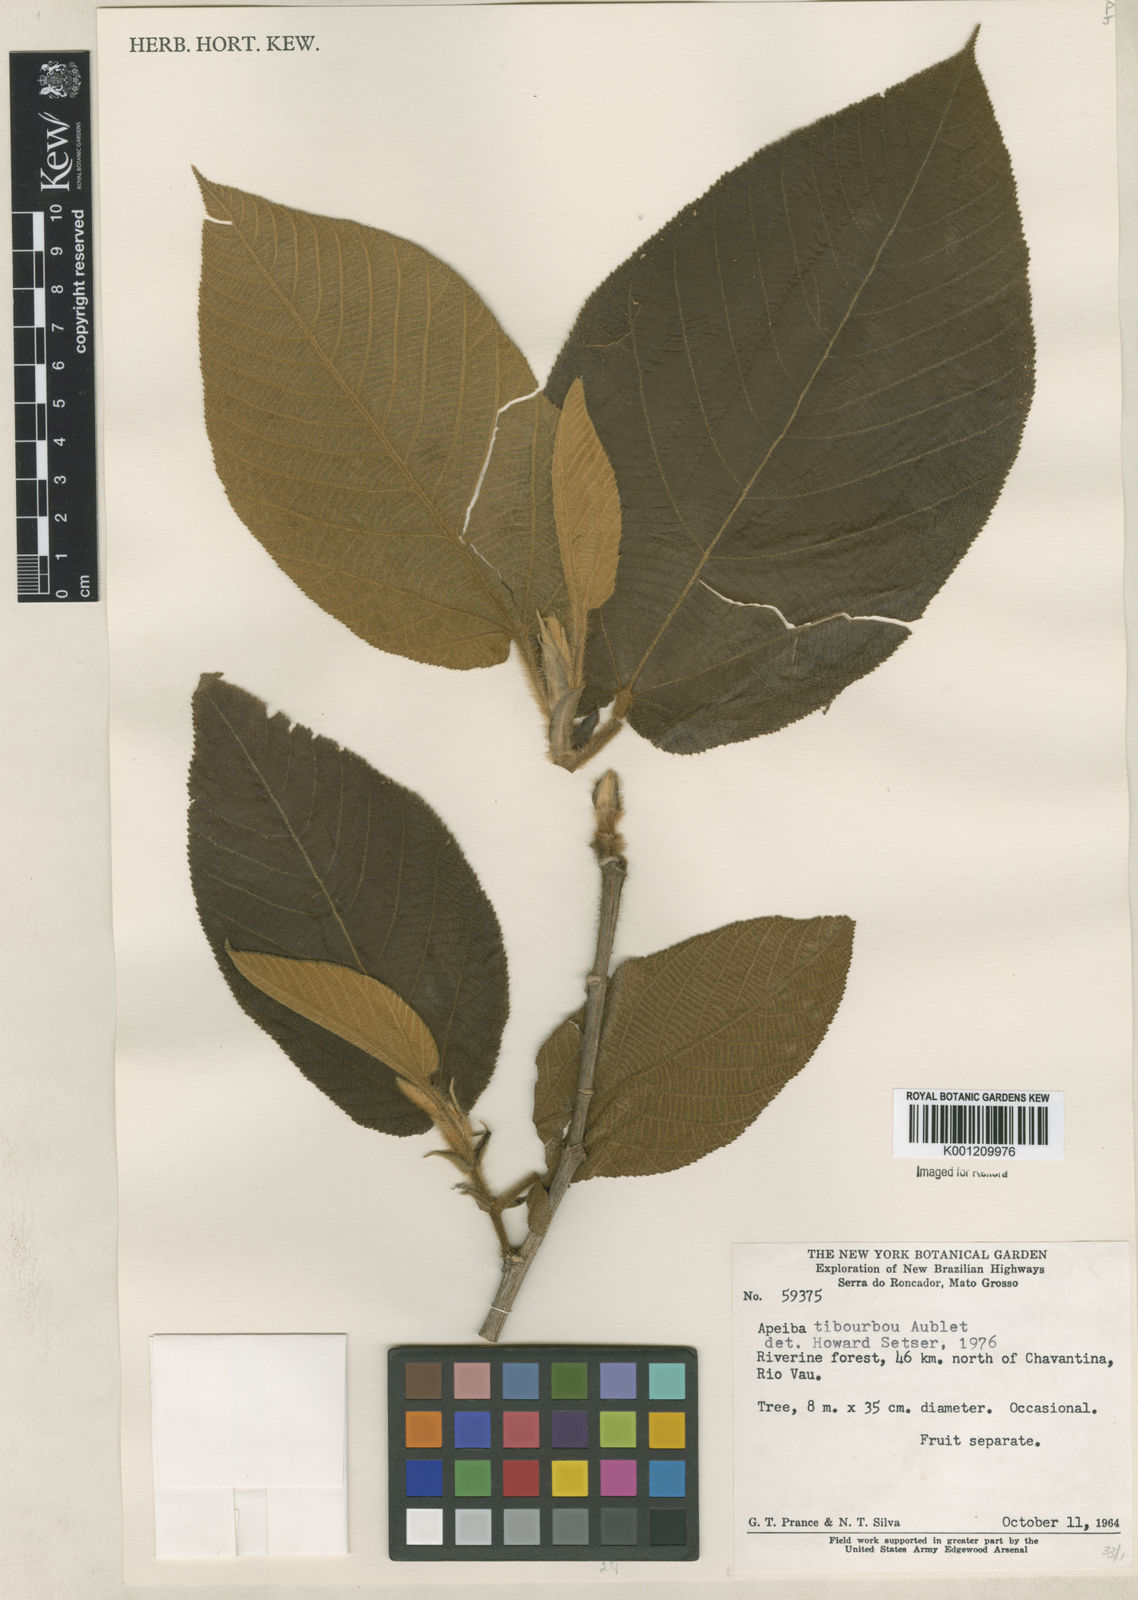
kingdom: Plantae
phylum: Tracheophyta
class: Magnoliopsida
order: Malvales
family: Malvaceae
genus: Apeiba
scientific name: Apeiba tibourbou
